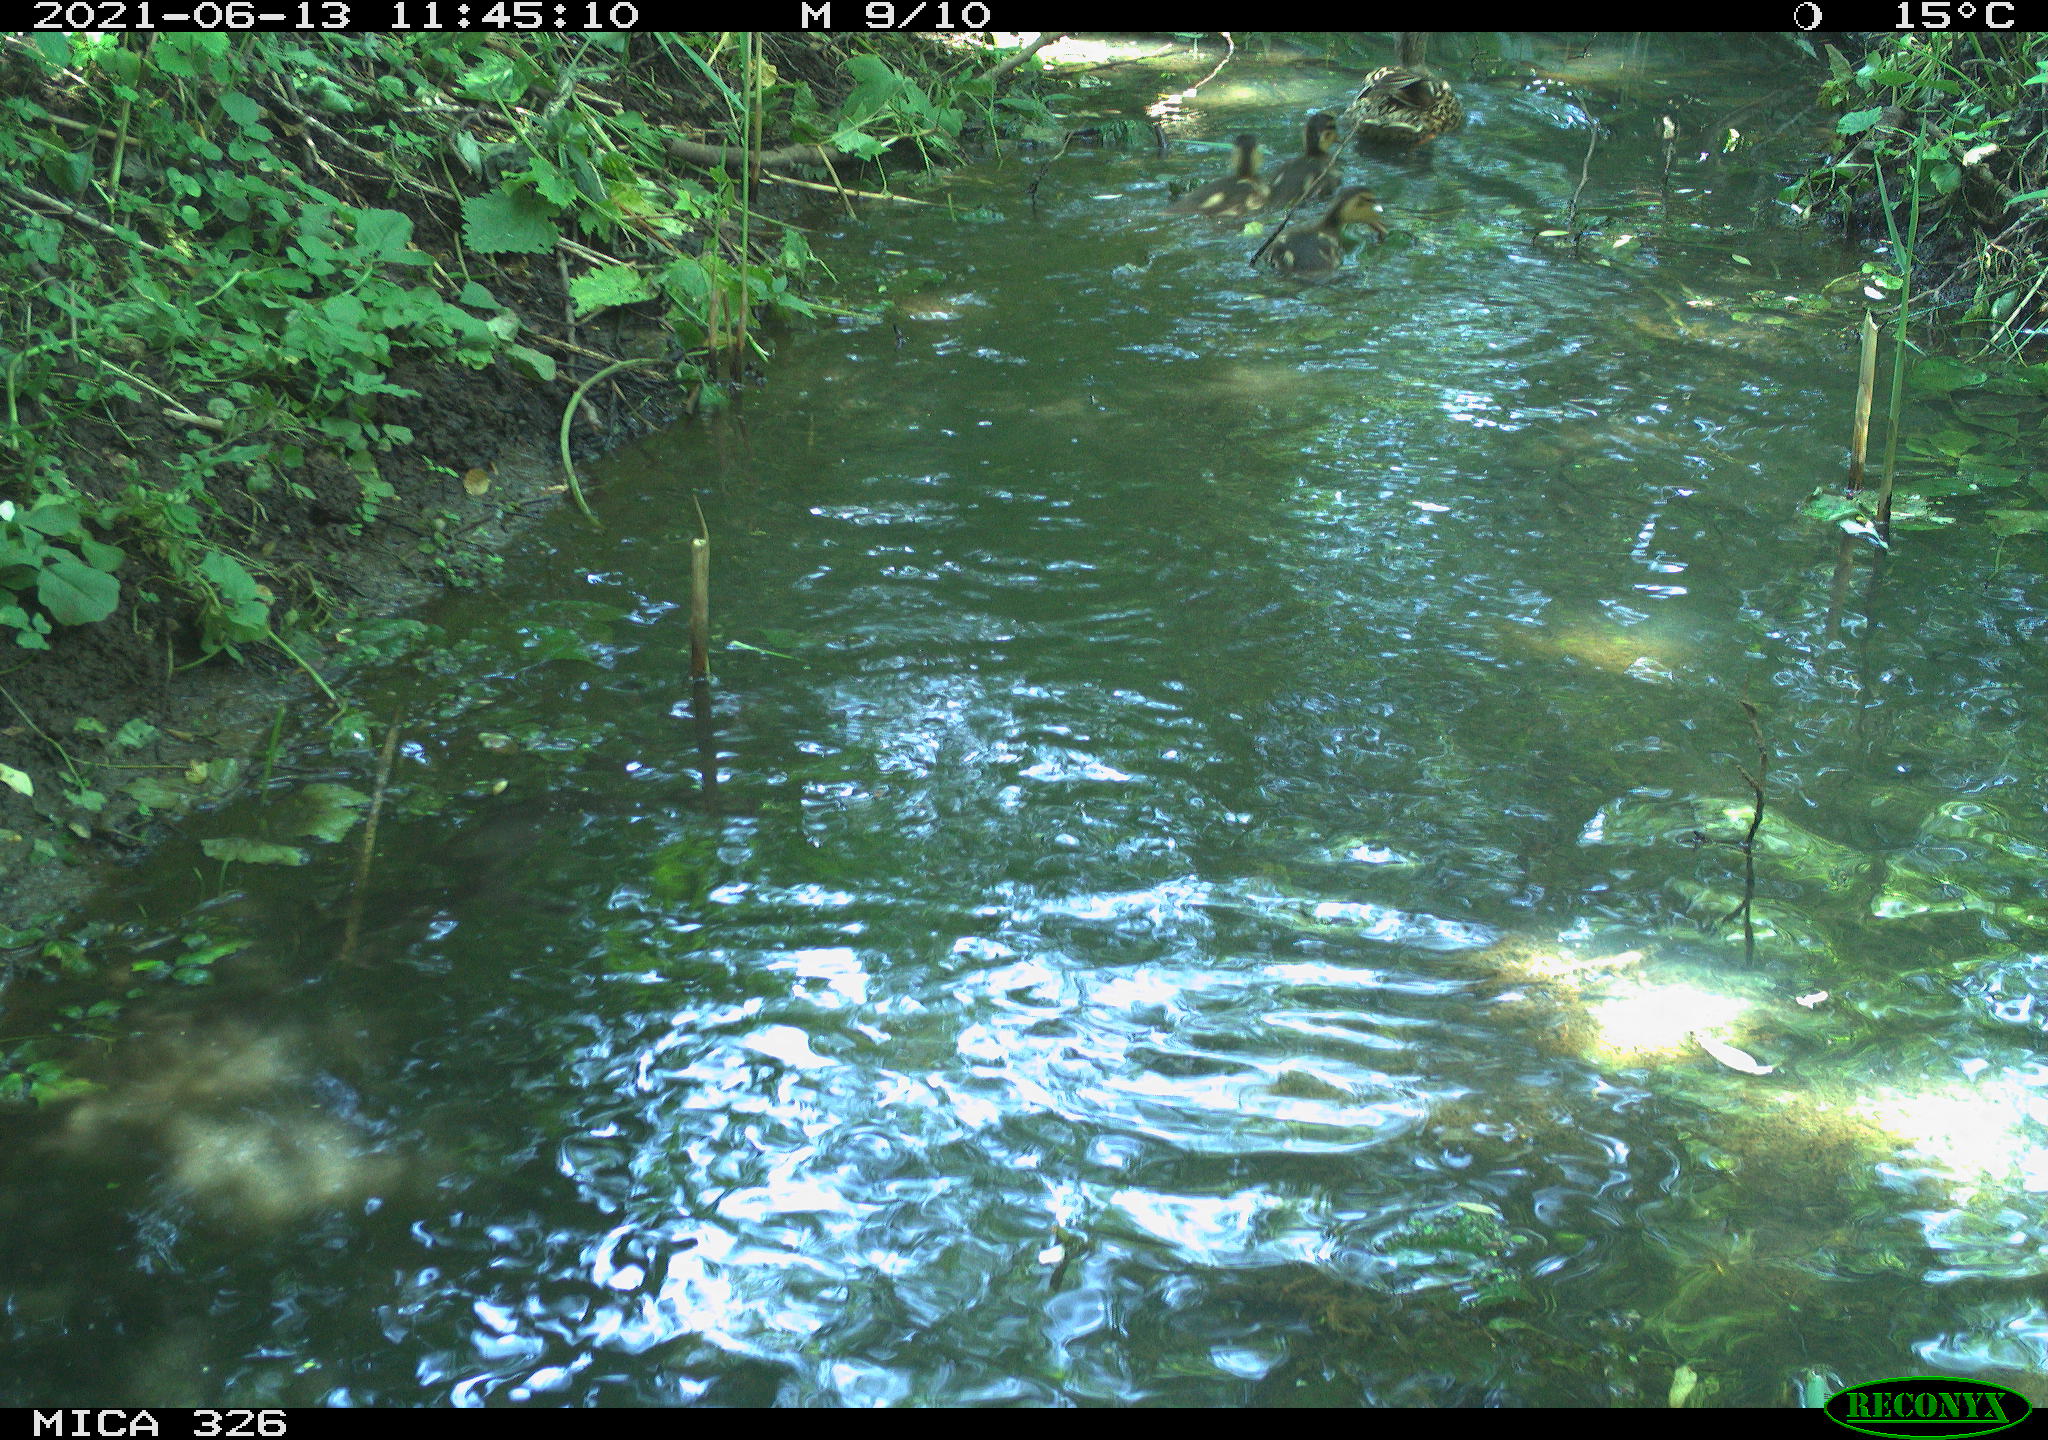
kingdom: Animalia
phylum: Chordata
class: Aves
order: Anseriformes
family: Anatidae
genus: Anas
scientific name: Anas platyrhynchos
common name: Mallard
